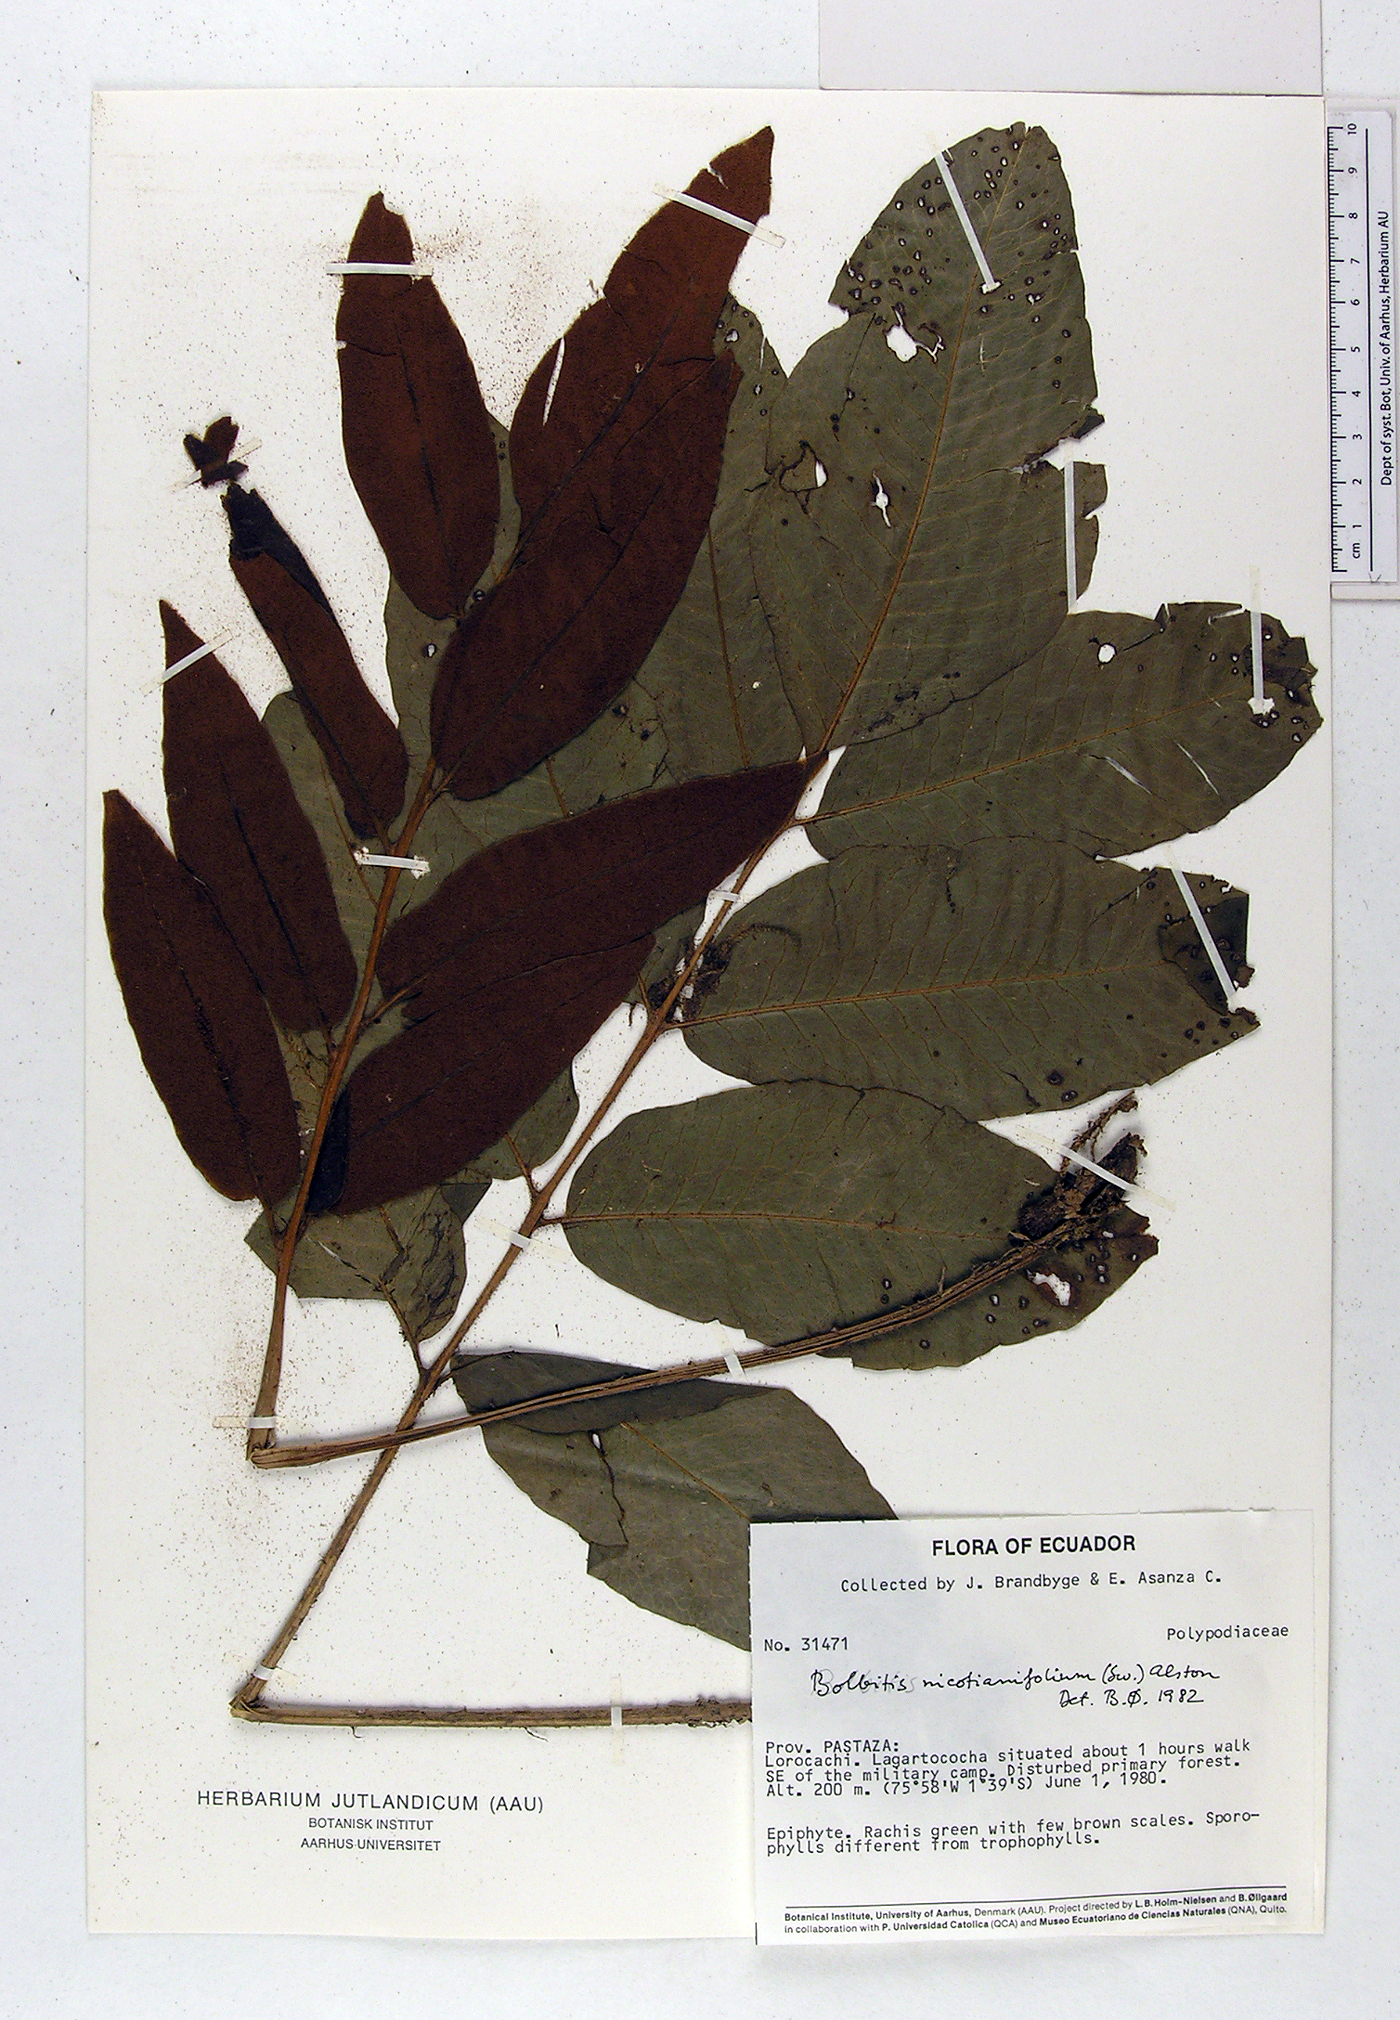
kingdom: Plantae
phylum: Tracheophyta
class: Polypodiopsida
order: Polypodiales
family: Dryopteridaceae
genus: Mickelia
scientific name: Mickelia nicotianifolia
